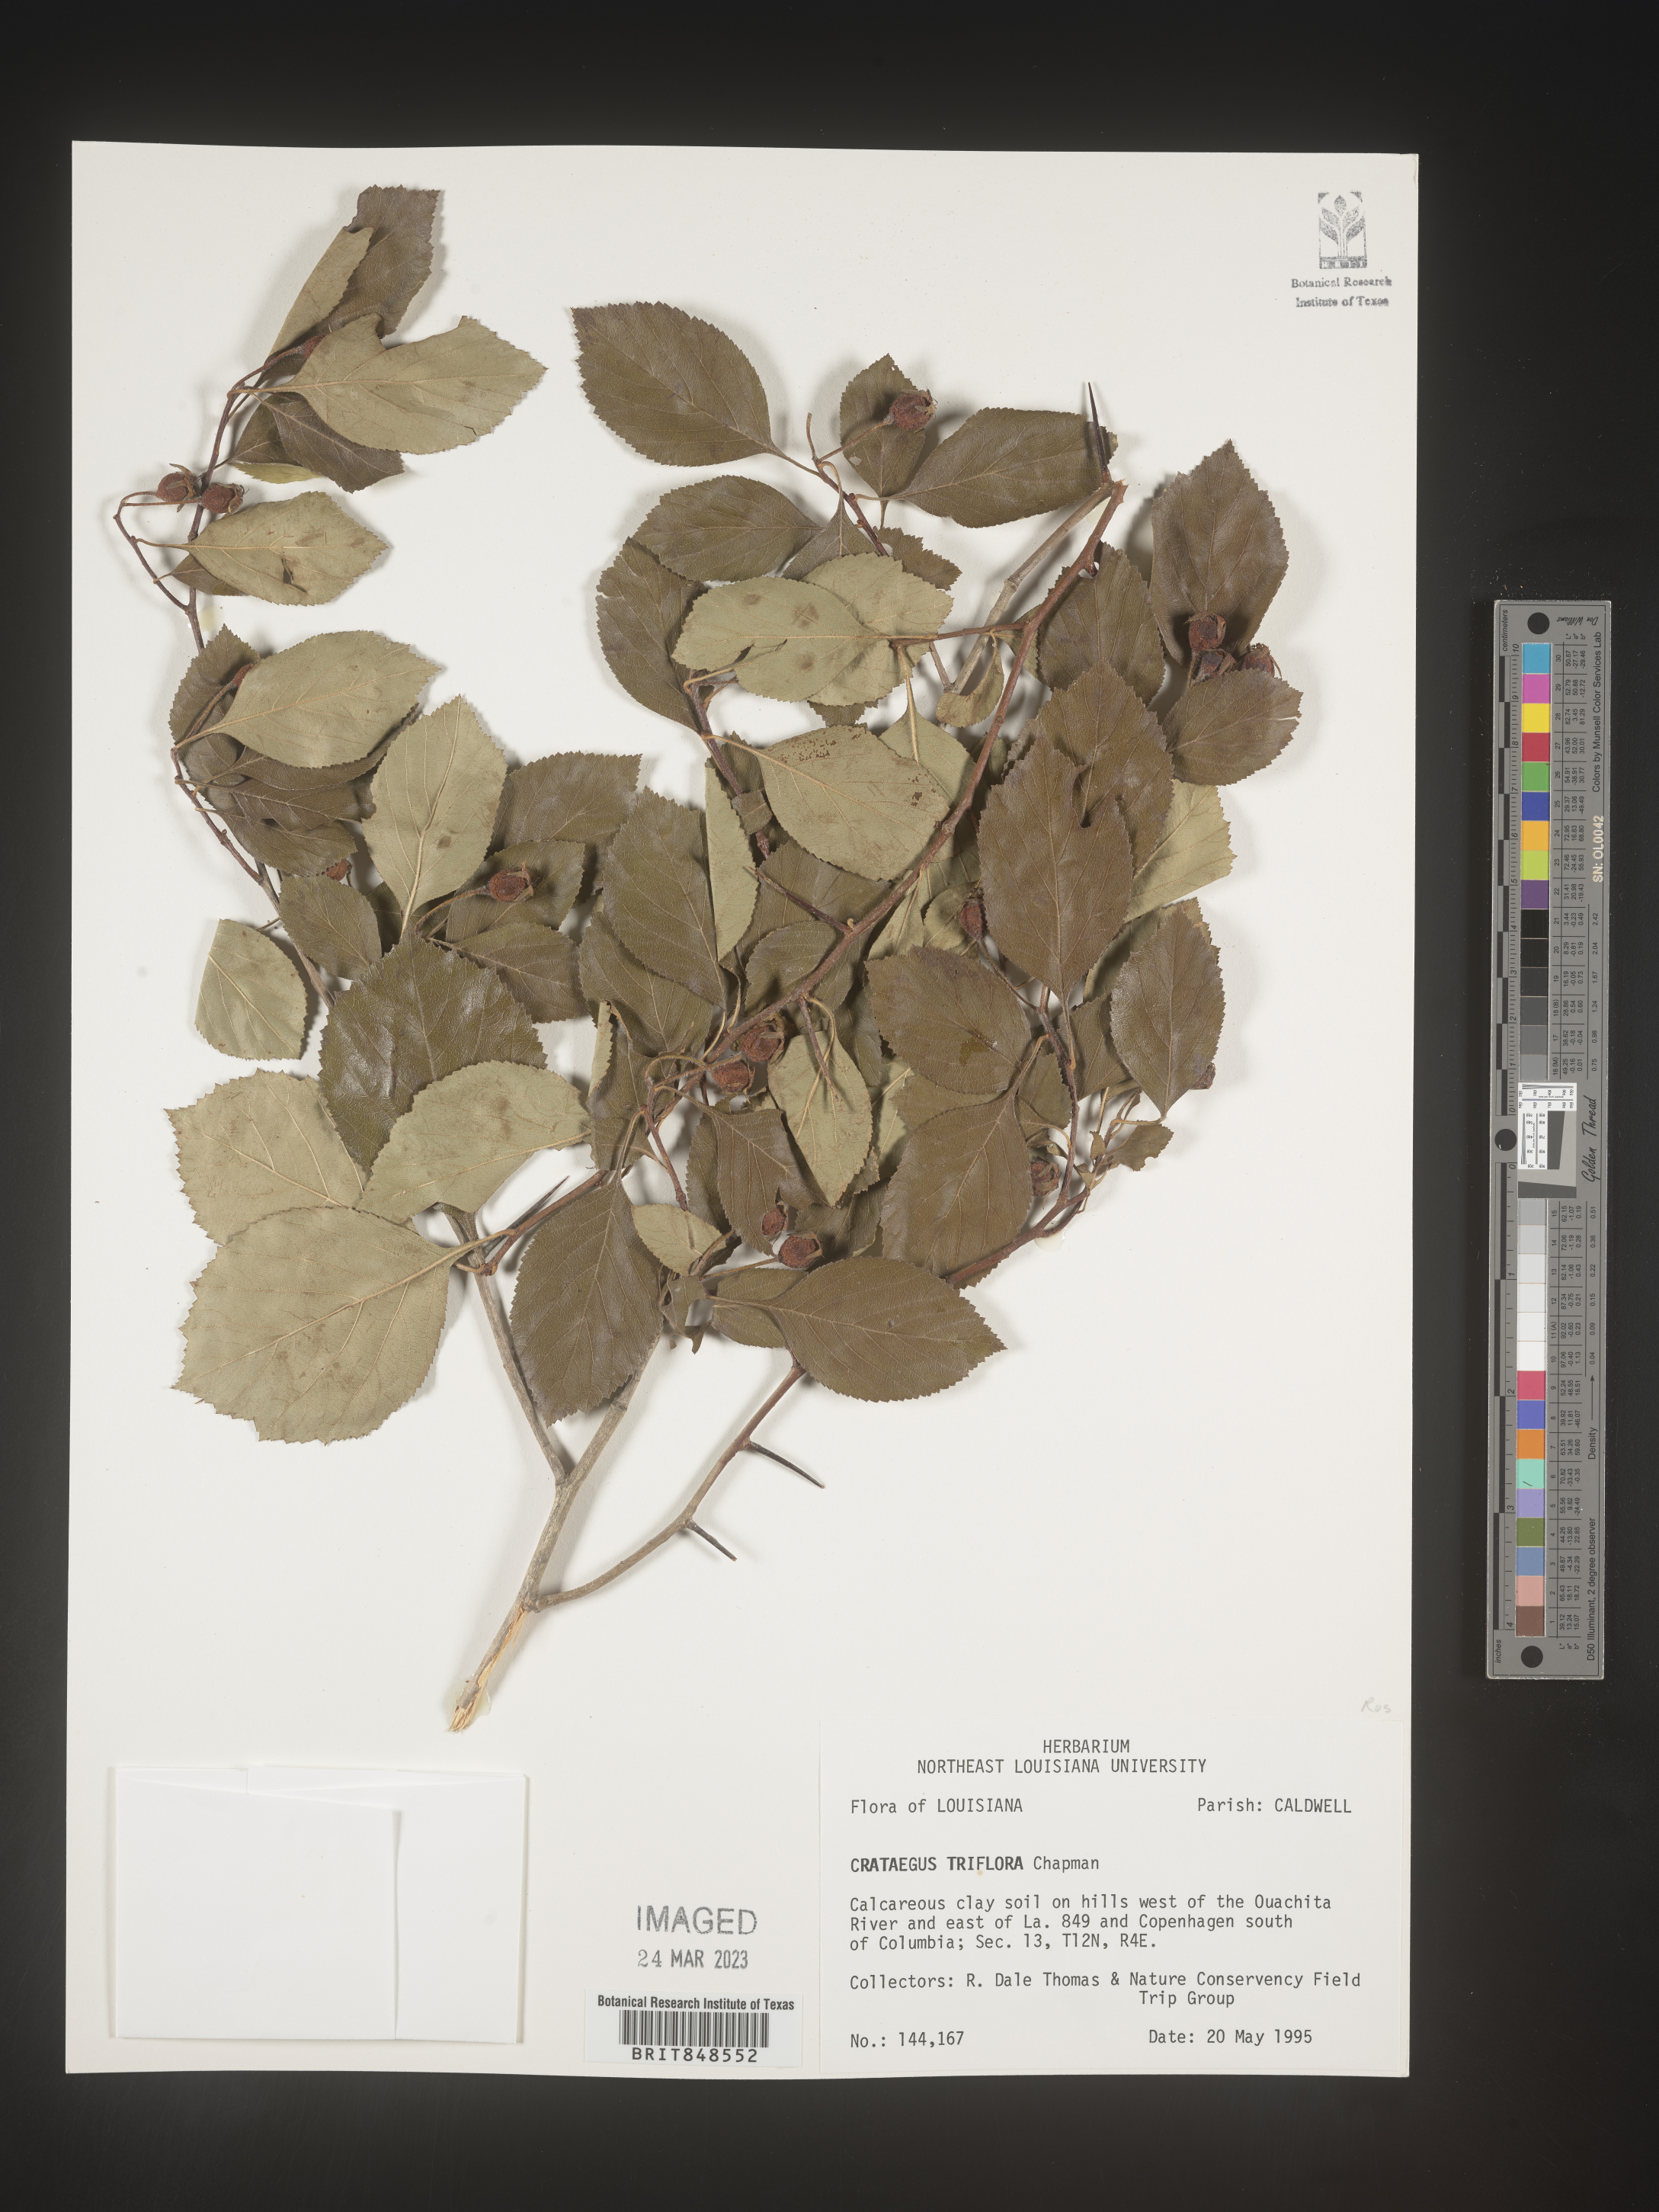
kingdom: Plantae
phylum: Tracheophyta
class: Magnoliopsida
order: Rosales
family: Rosaceae
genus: Crataegus
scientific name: Crataegus
